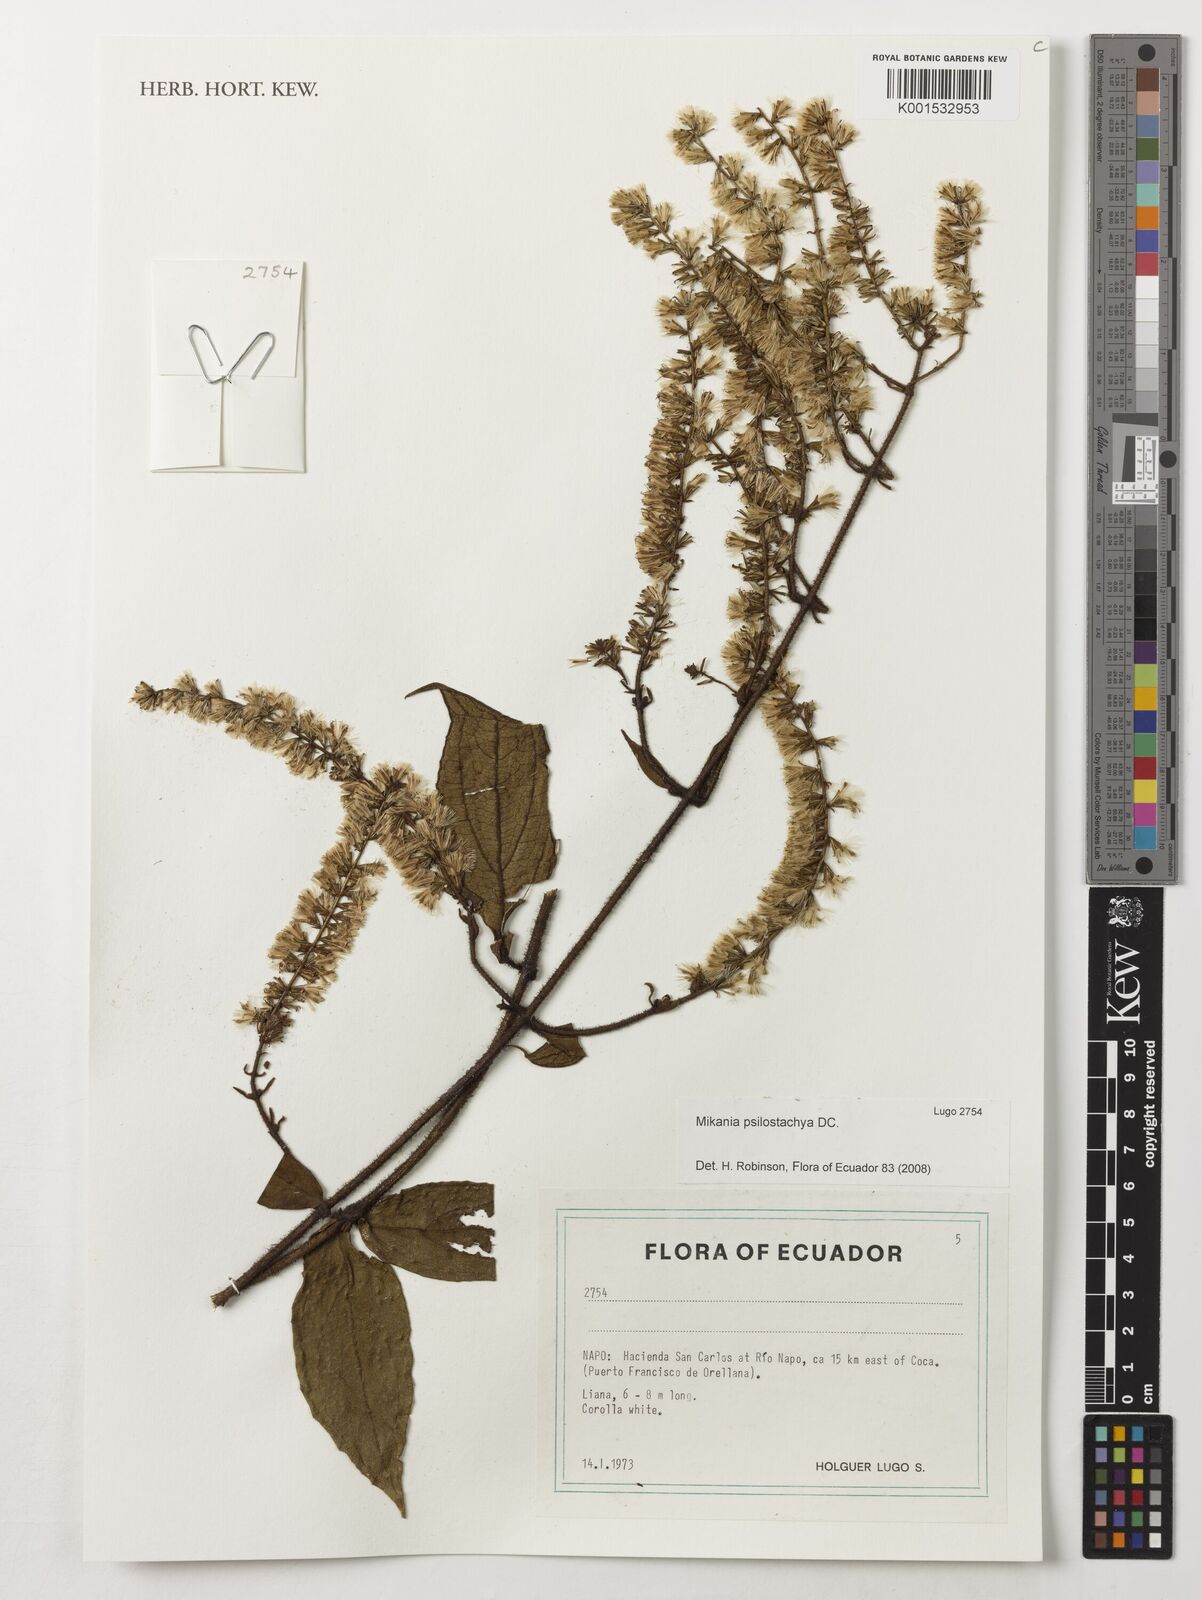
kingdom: Plantae
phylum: Tracheophyta
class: Magnoliopsida
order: Asterales
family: Asteraceae
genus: Mikania
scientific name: Mikania psilostachya
